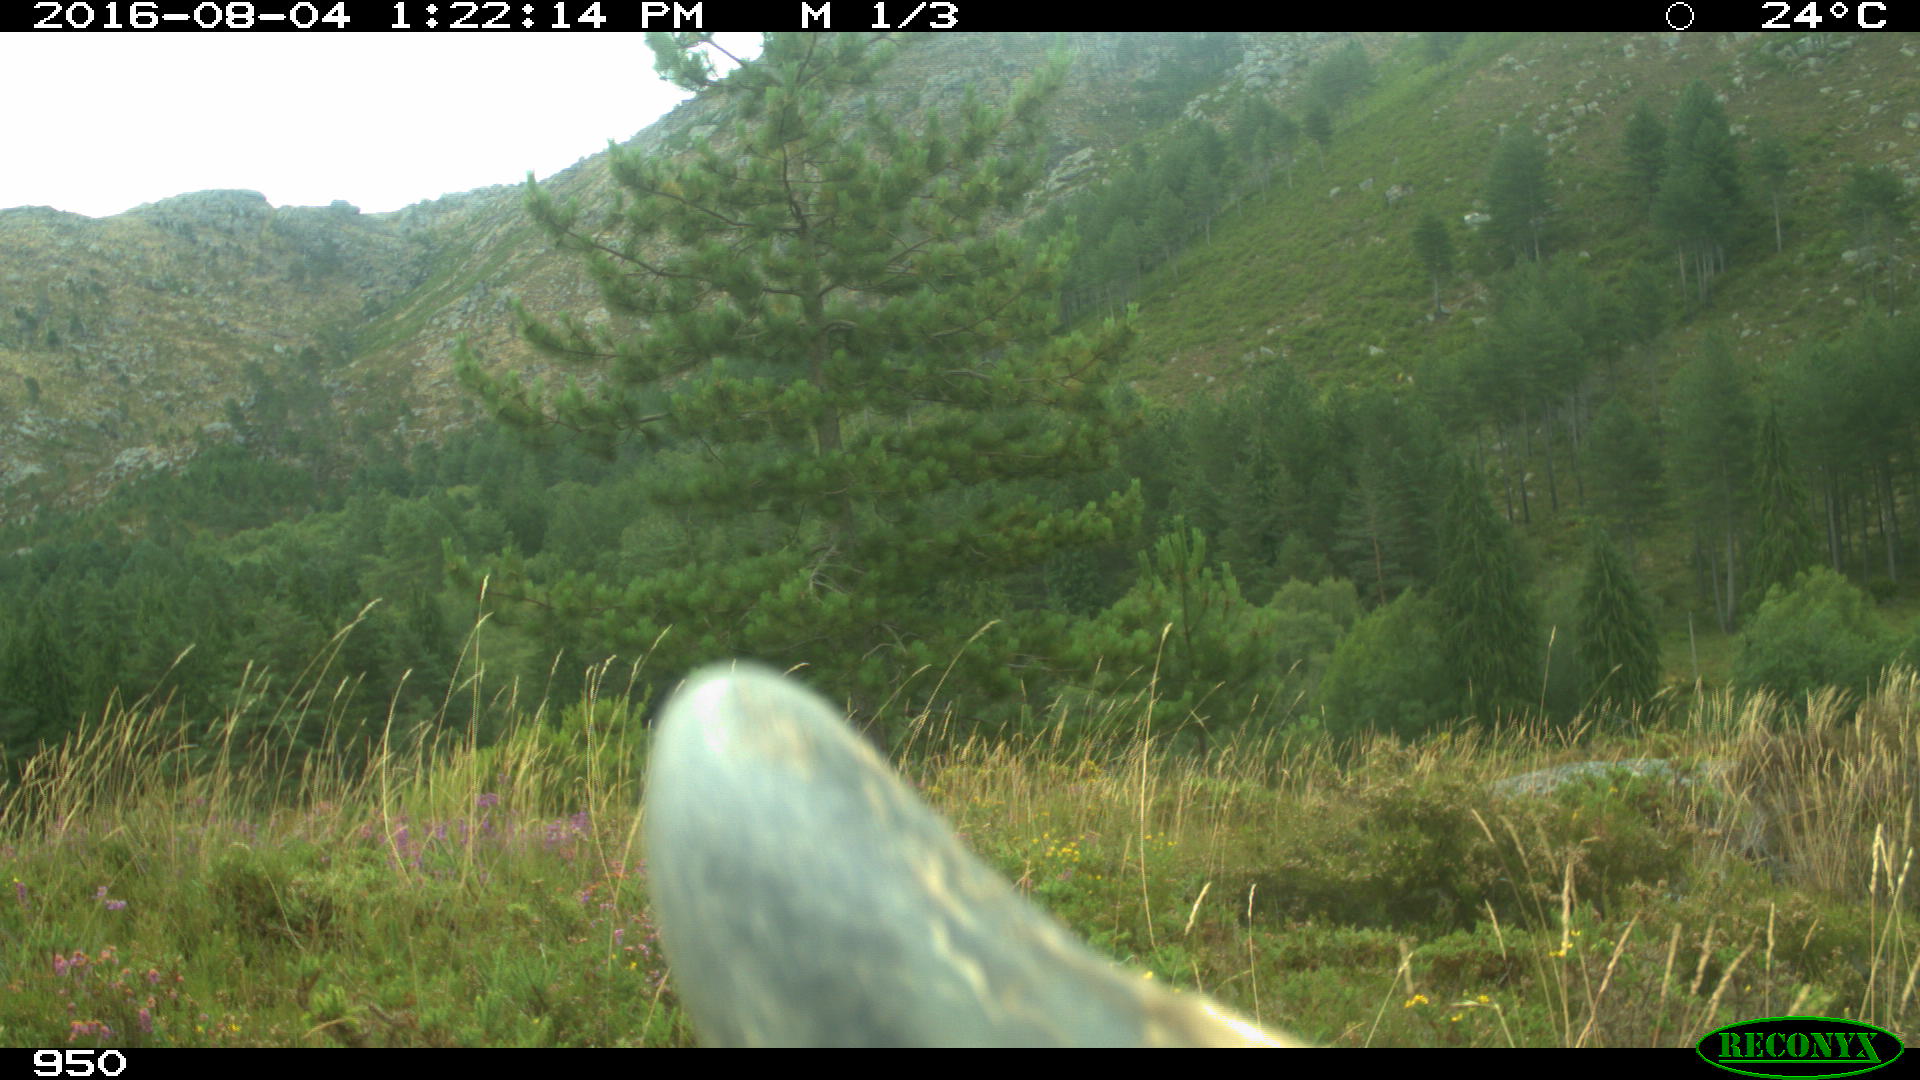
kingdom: Animalia
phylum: Chordata
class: Mammalia
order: Artiodactyla
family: Bovidae
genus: Bos
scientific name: Bos taurus
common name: Domesticated cattle
